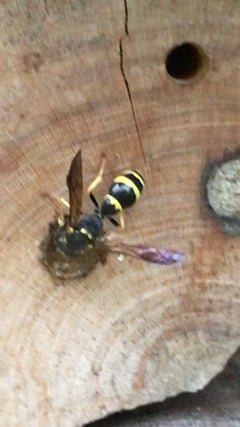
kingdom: Animalia
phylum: Arthropoda
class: Insecta
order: Hymenoptera
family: Eumenidae
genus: Symmorphus
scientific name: Symmorphus murarius
